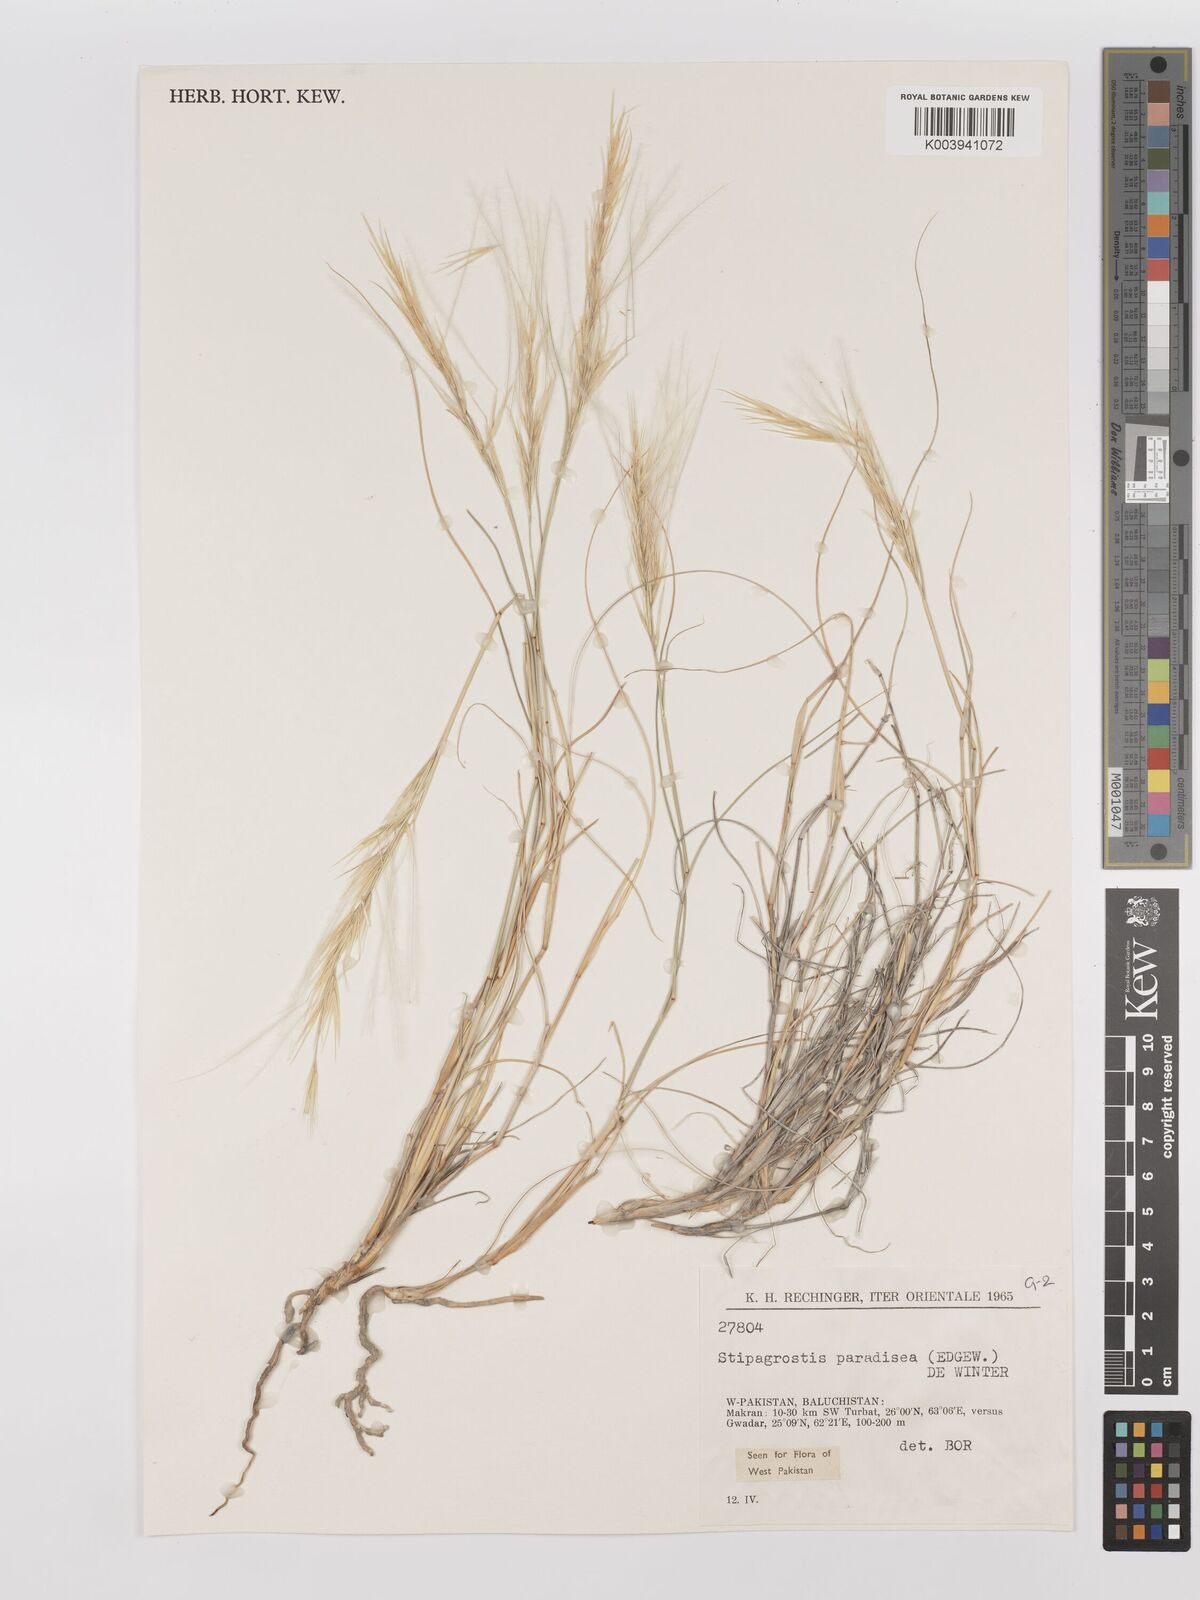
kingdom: Plantae
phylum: Tracheophyta
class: Liliopsida
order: Poales
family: Poaceae
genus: Stipagrostis
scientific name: Stipagrostis paradisea
